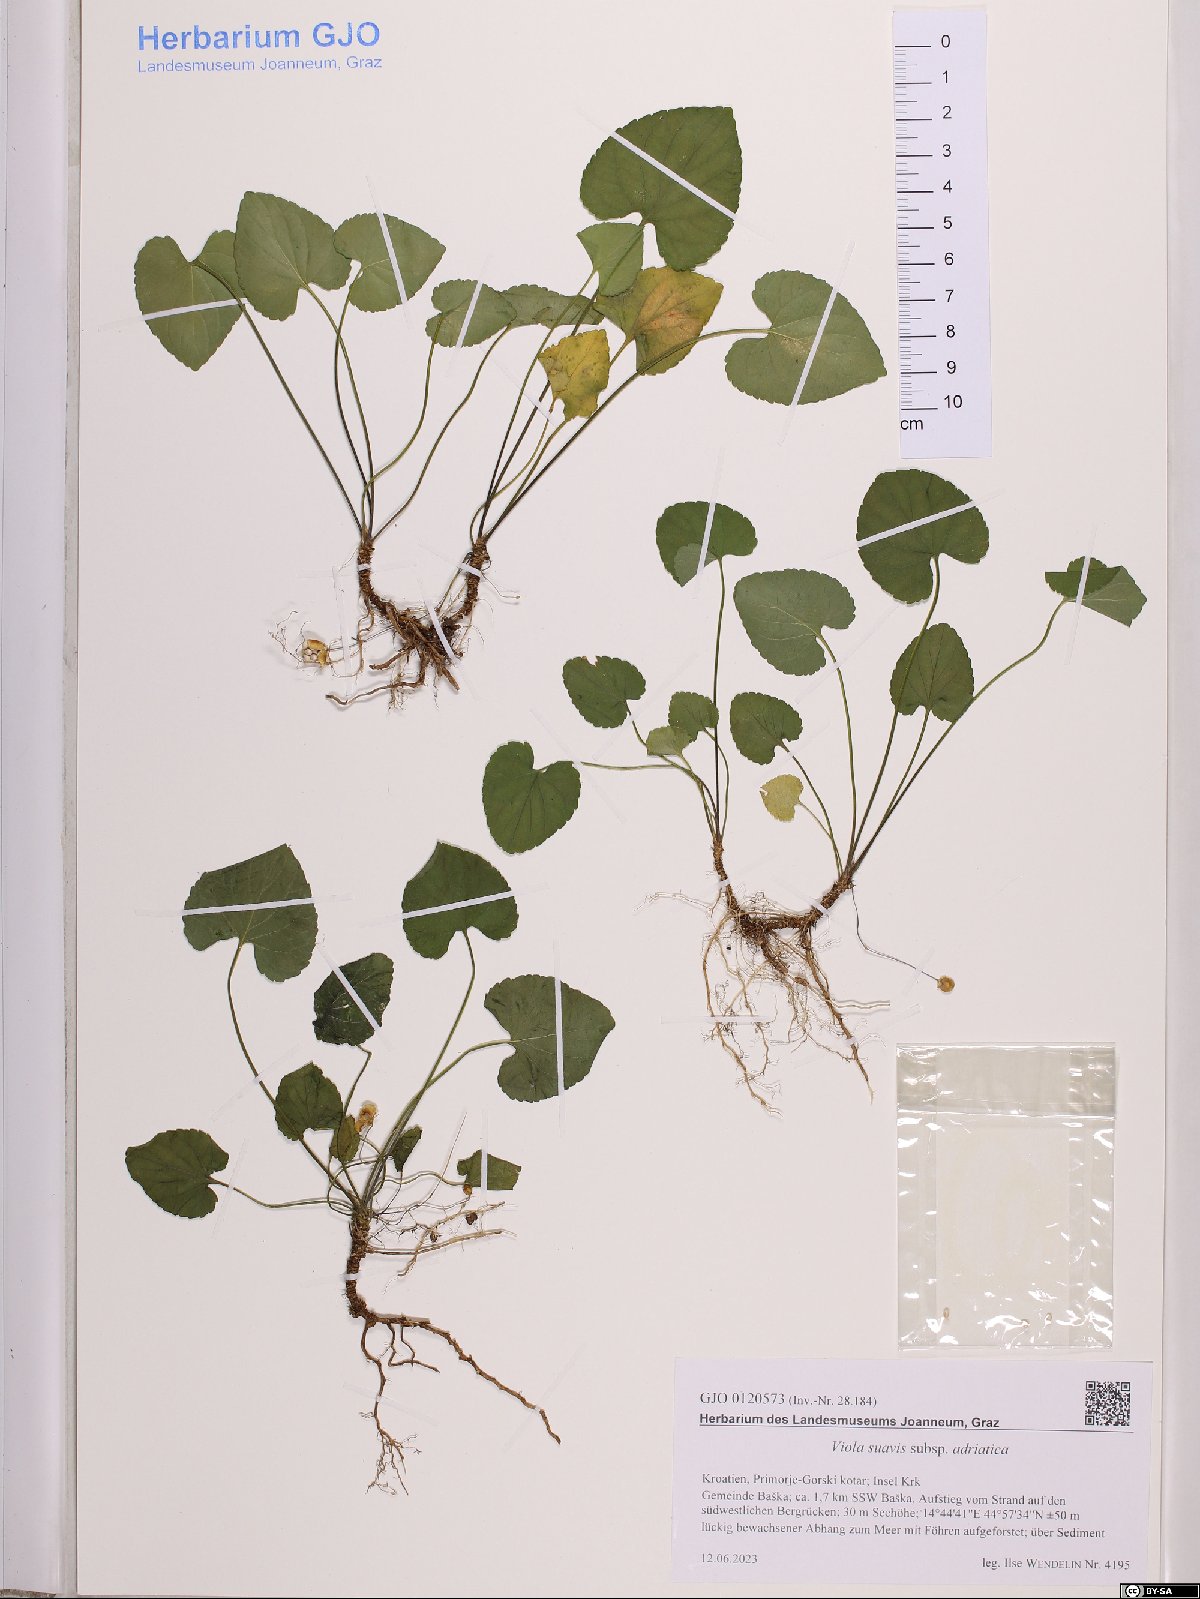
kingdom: Plantae
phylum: Tracheophyta
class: Magnoliopsida
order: Malpighiales
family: Violaceae
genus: Viola
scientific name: Viola suavis
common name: Russian violet
